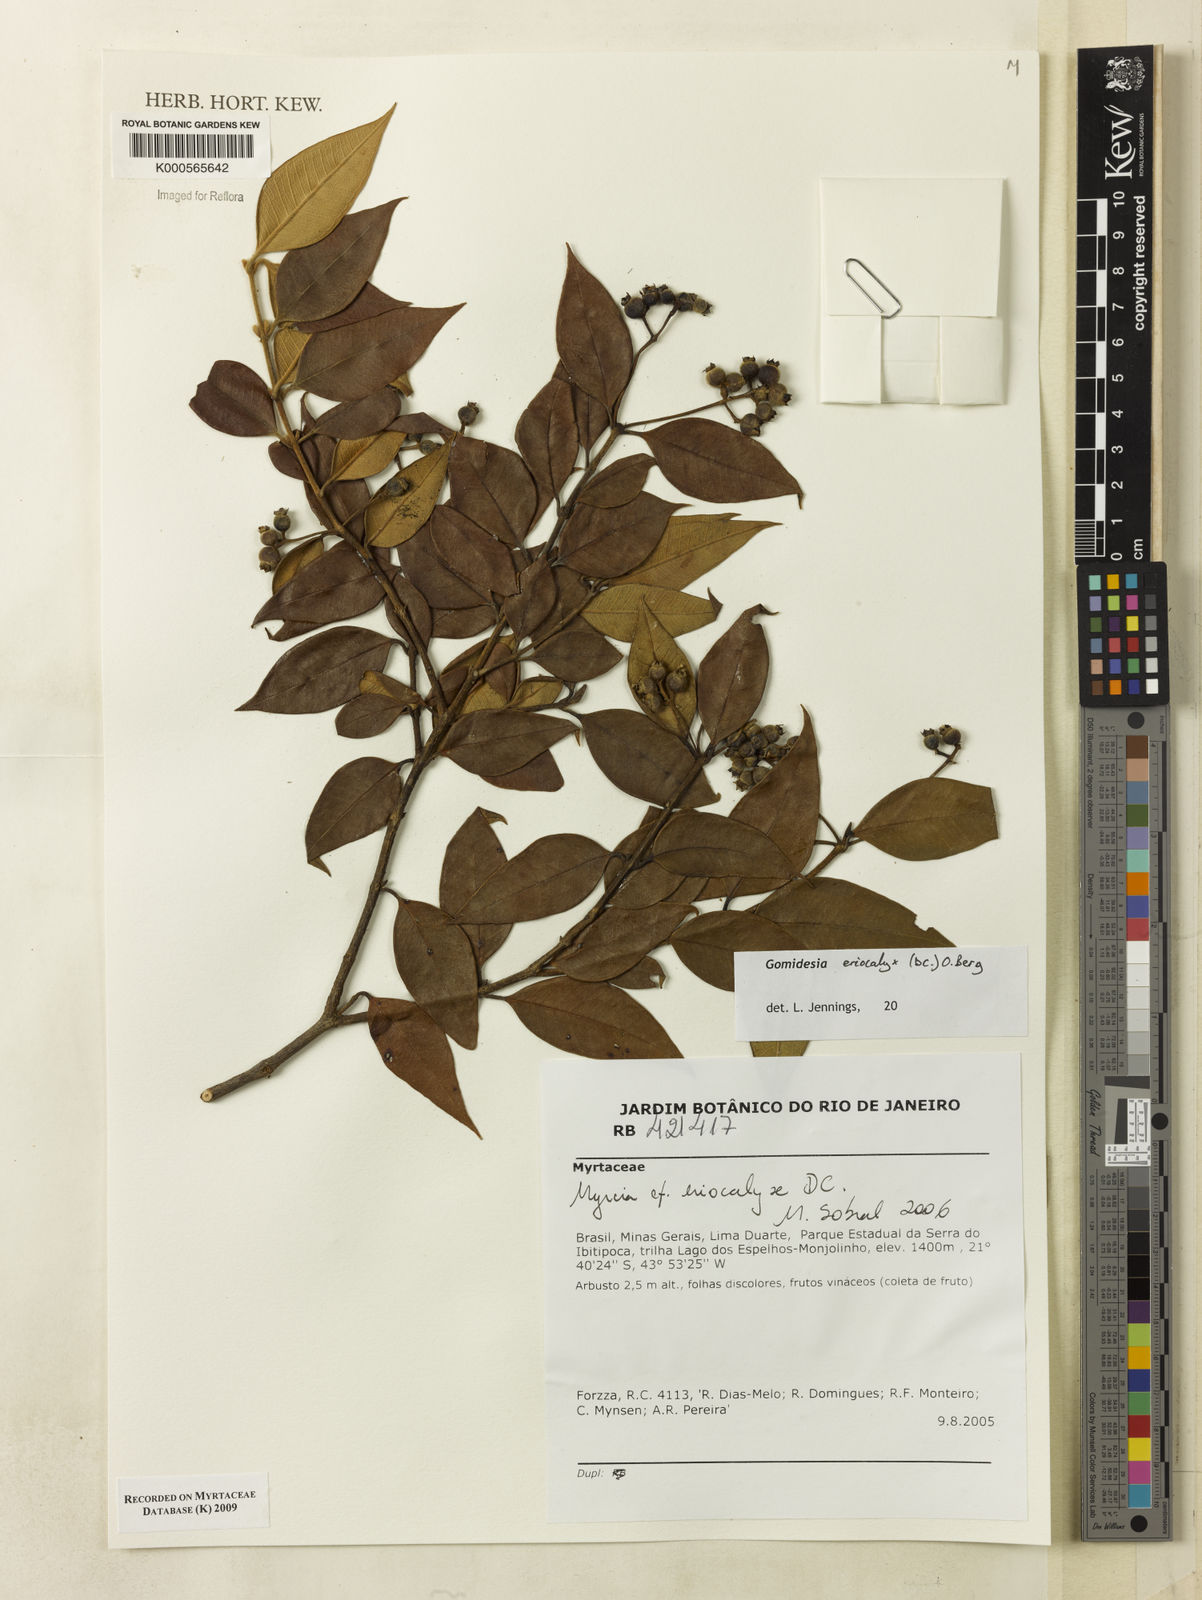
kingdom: Plantae
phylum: Tracheophyta
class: Magnoliopsida
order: Myrtales
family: Myrtaceae
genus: Myrcia
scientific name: Myrcia eriocalyx
